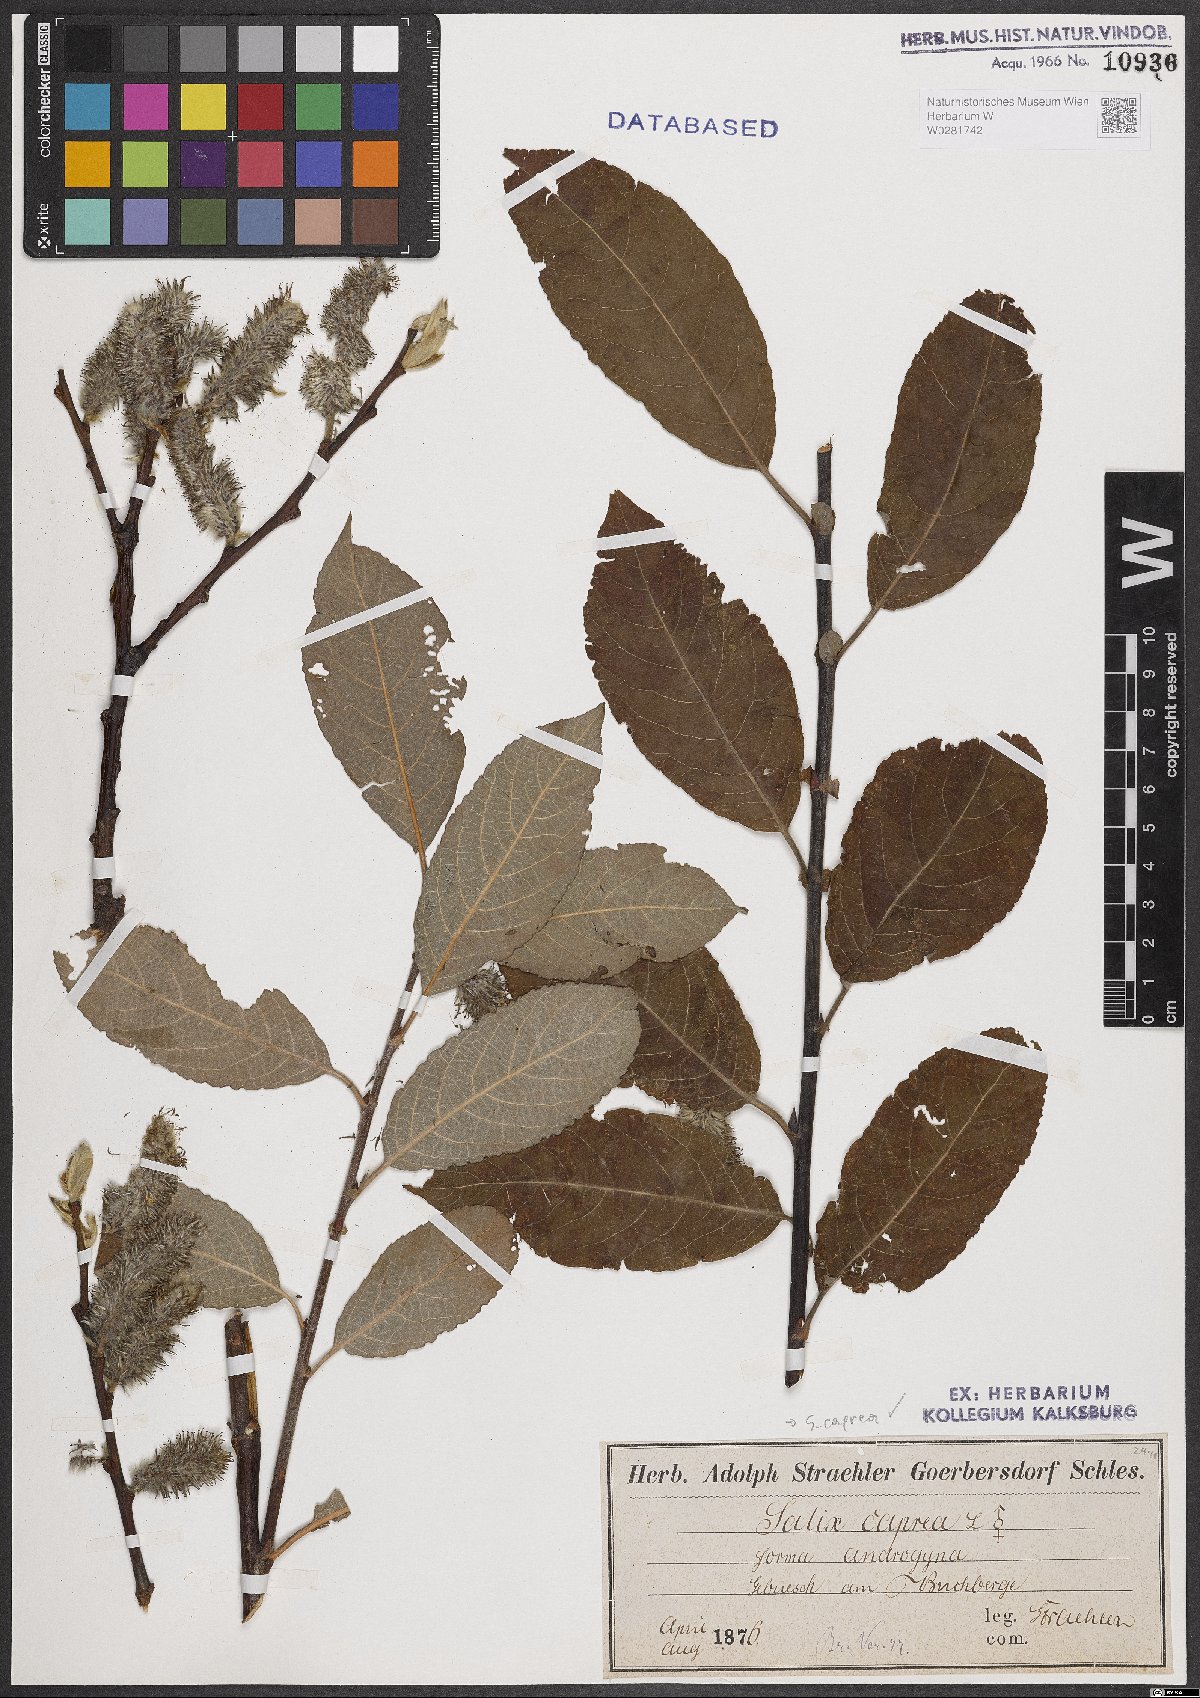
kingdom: Plantae
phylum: Tracheophyta
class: Magnoliopsida
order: Malpighiales
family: Salicaceae
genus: Salix
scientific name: Salix caprea
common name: Goat willow
